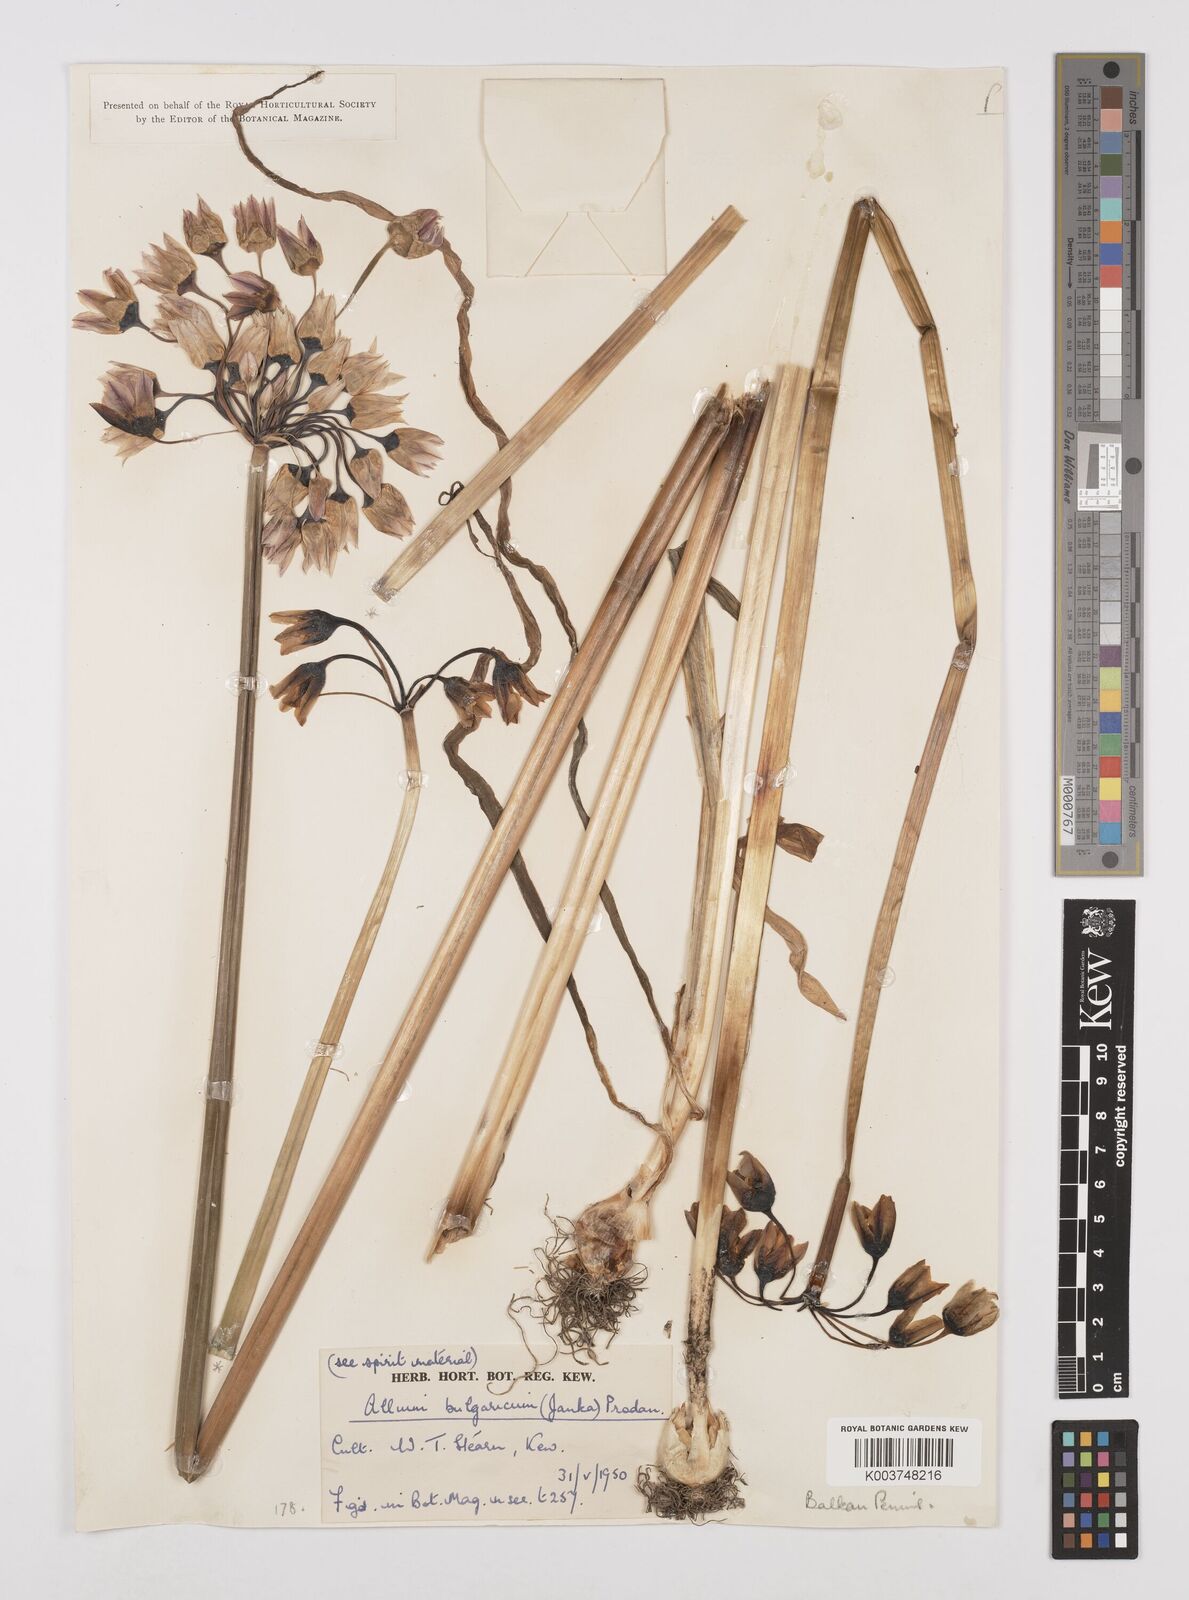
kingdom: Plantae
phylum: Tracheophyta
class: Liliopsida
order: Asparagales
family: Amaryllidaceae
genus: Allium
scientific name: Allium siculum
